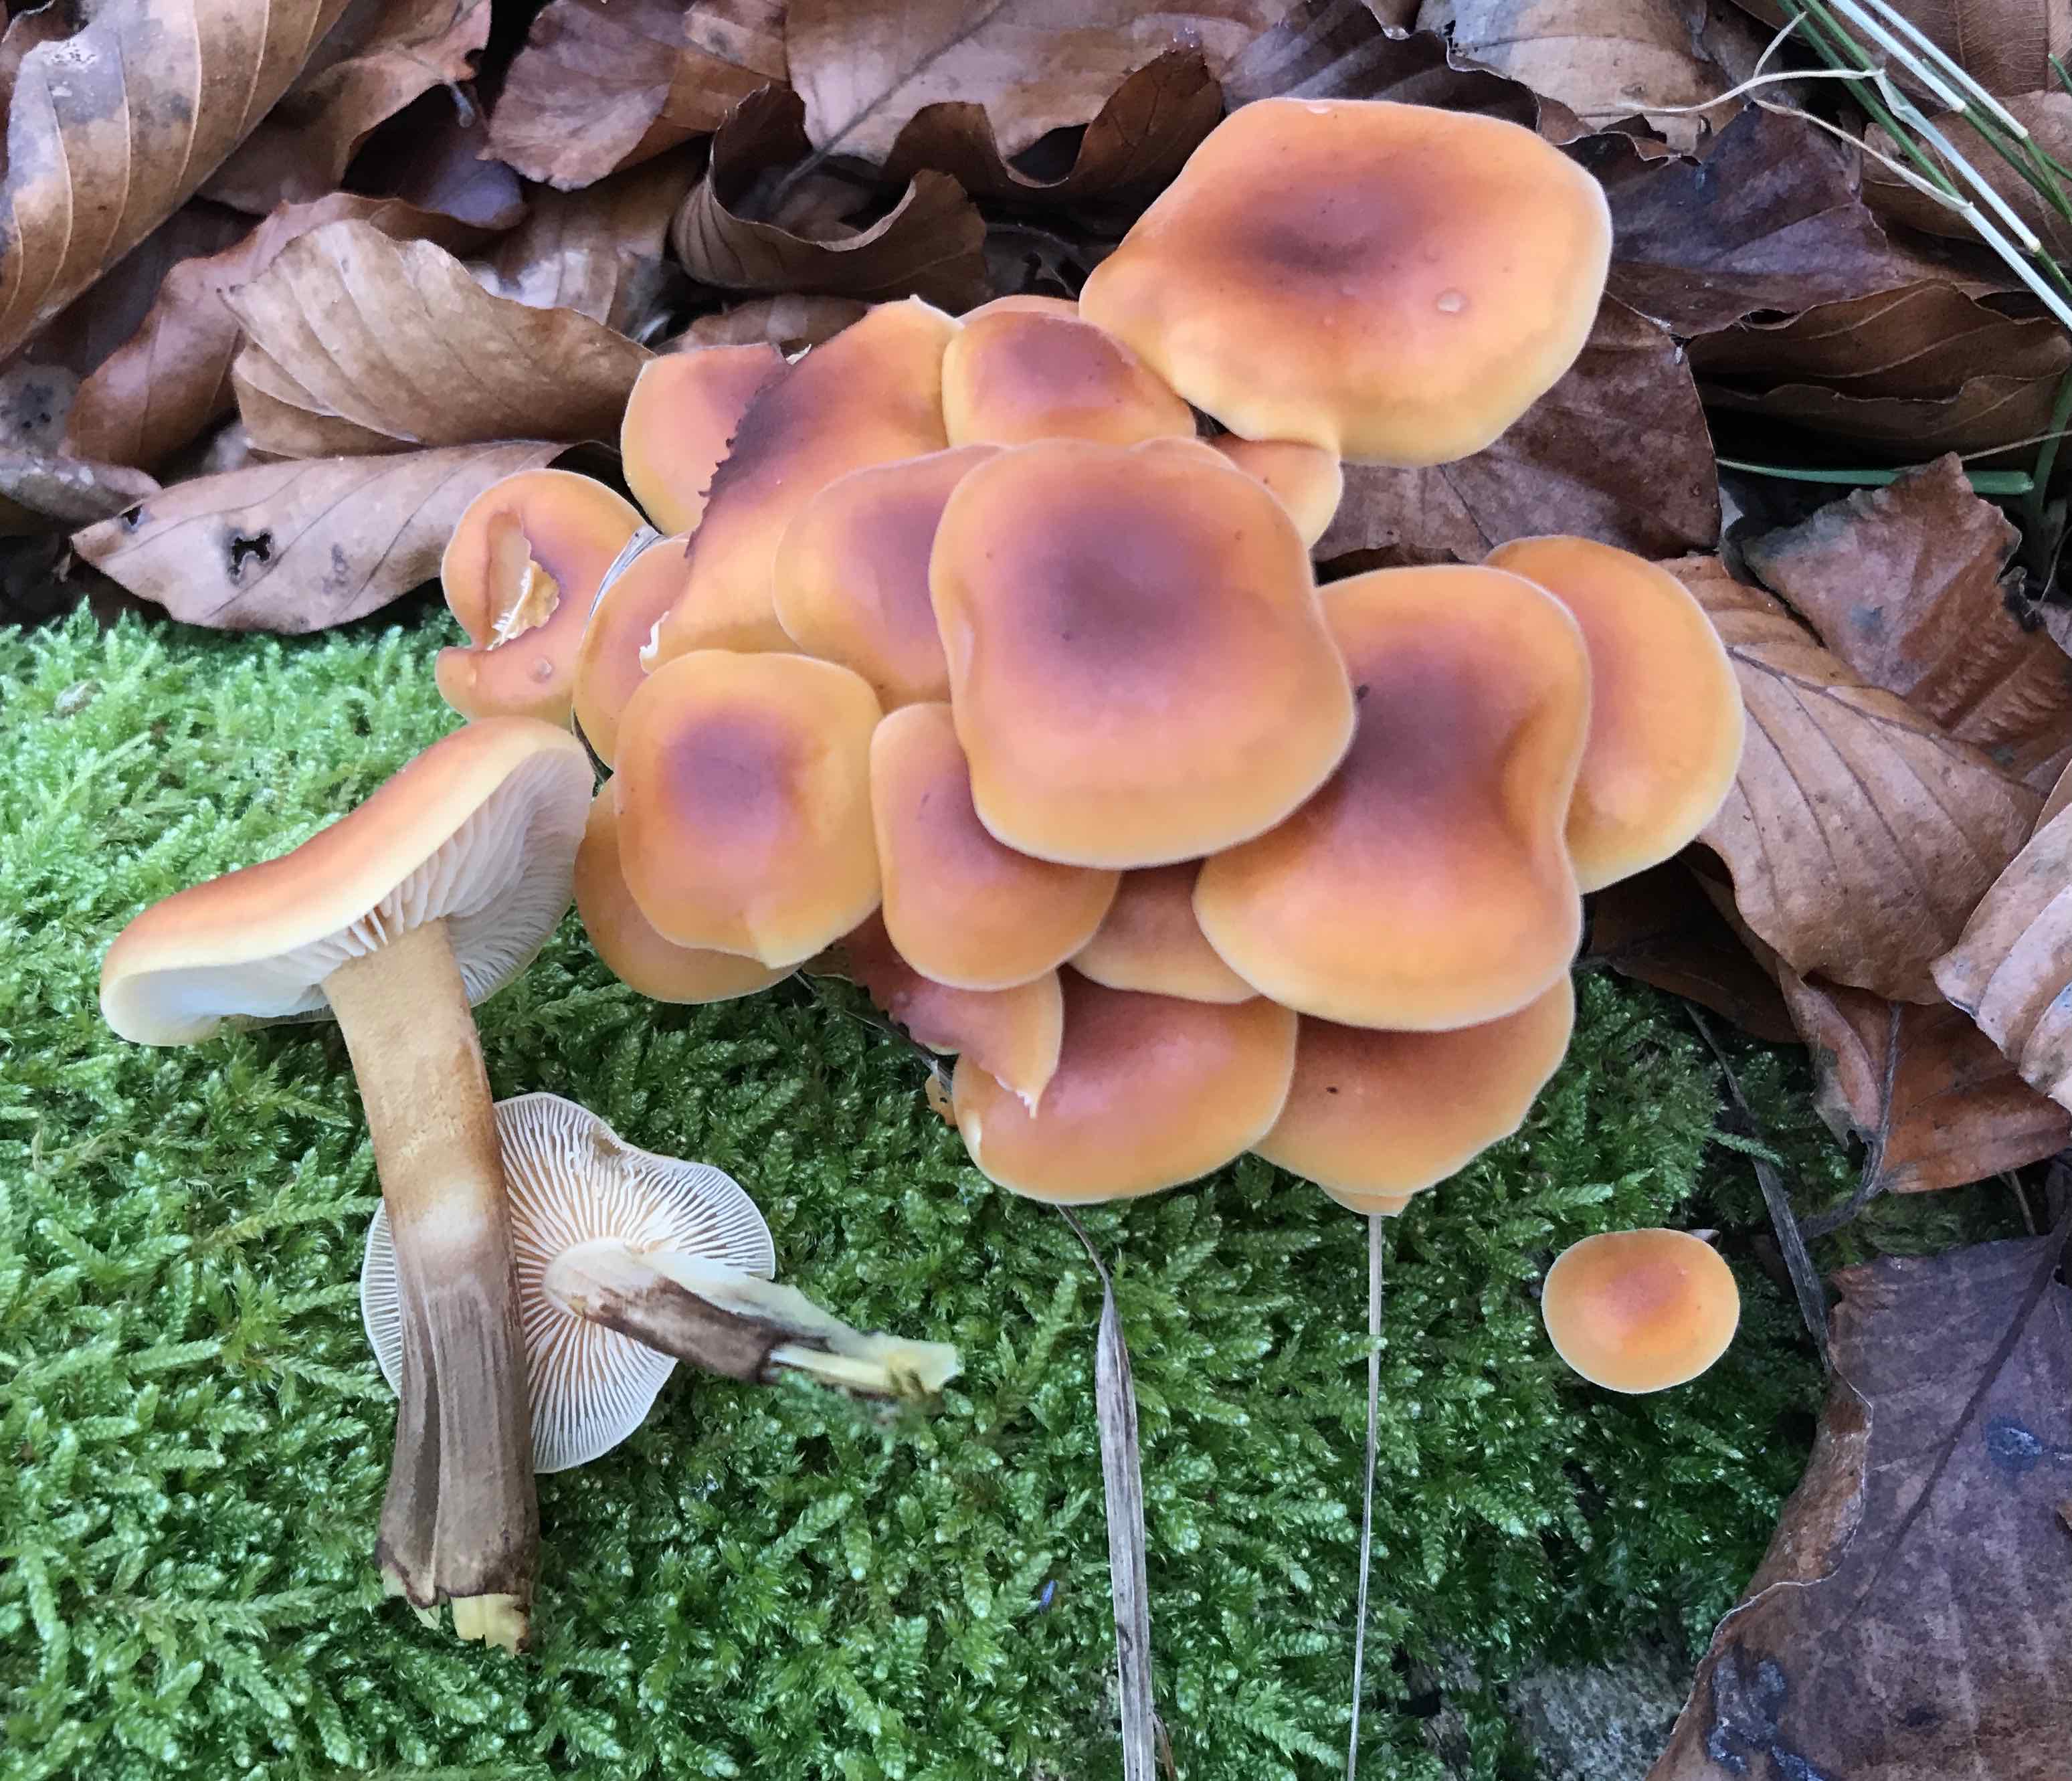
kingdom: Fungi
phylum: Basidiomycota
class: Agaricomycetes
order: Agaricales
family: Physalacriaceae
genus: Flammulina
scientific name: Flammulina velutipes
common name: gul fløjlsfod
